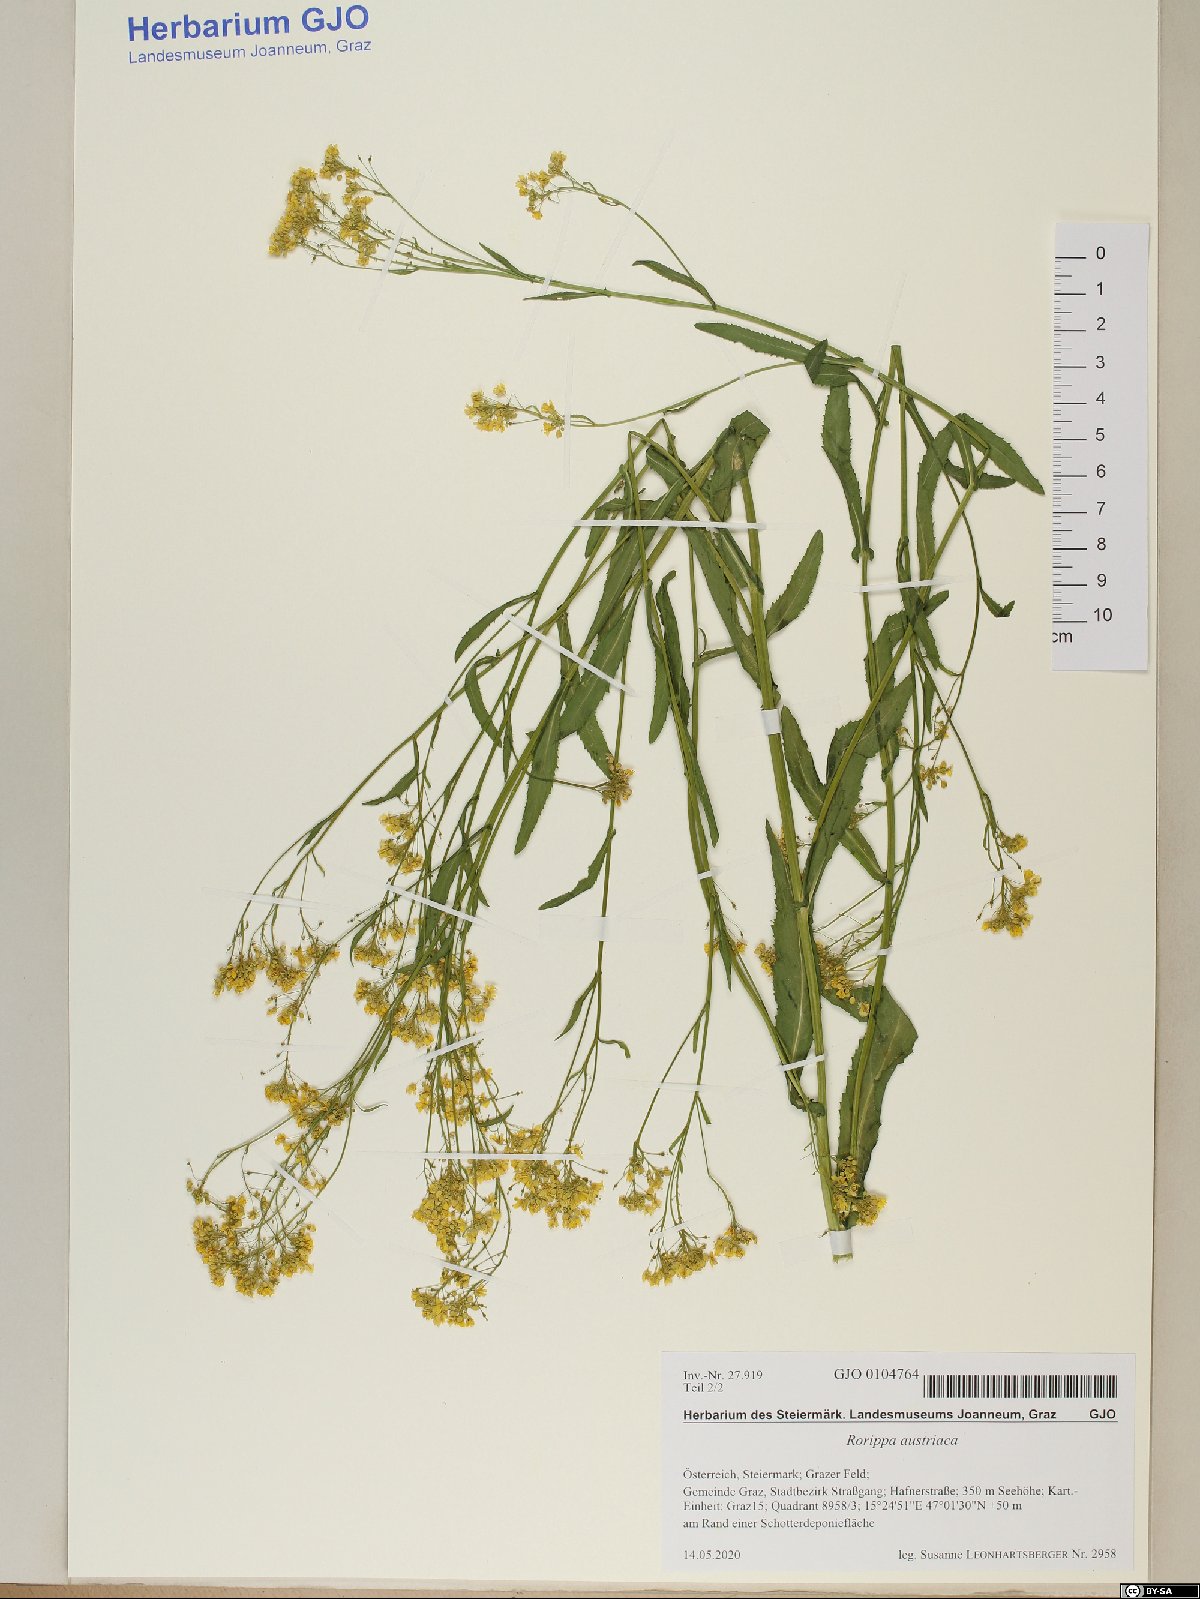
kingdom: Plantae
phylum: Tracheophyta
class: Magnoliopsida
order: Brassicales
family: Brassicaceae
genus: Rorippa
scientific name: Rorippa austriaca
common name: Austrian yellow-cress
